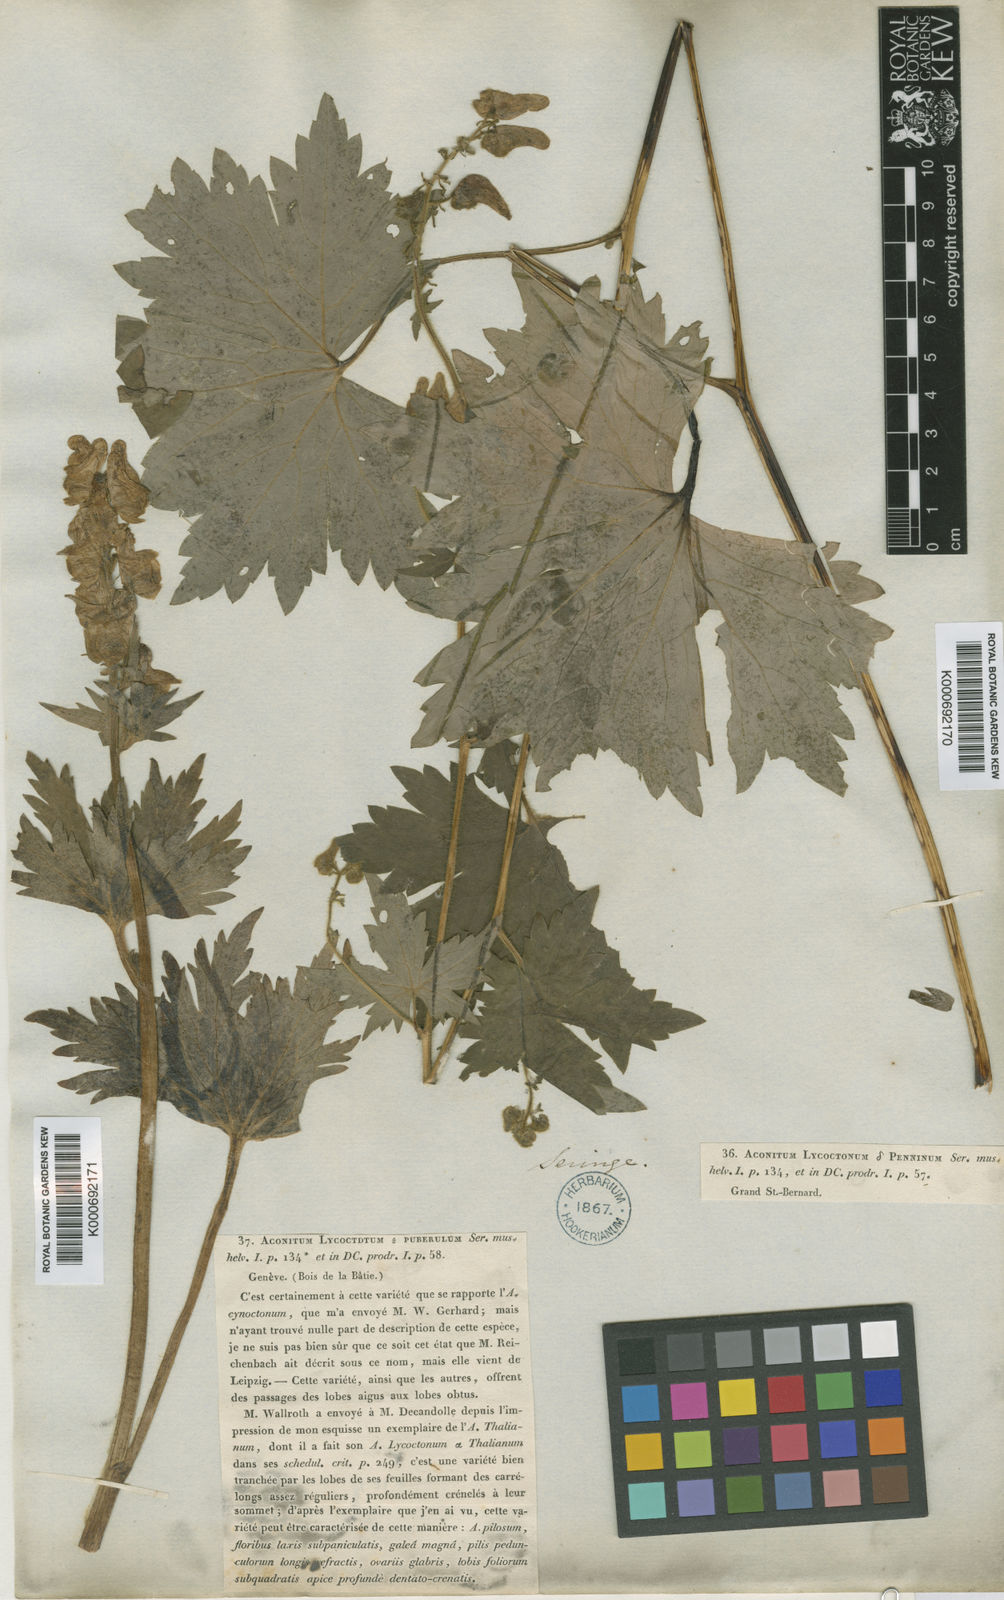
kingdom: Plantae
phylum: Tracheophyta
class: Magnoliopsida
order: Ranunculales
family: Ranunculaceae
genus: Aconitum
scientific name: Aconitum lycoctonum
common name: Wolf's-bane
